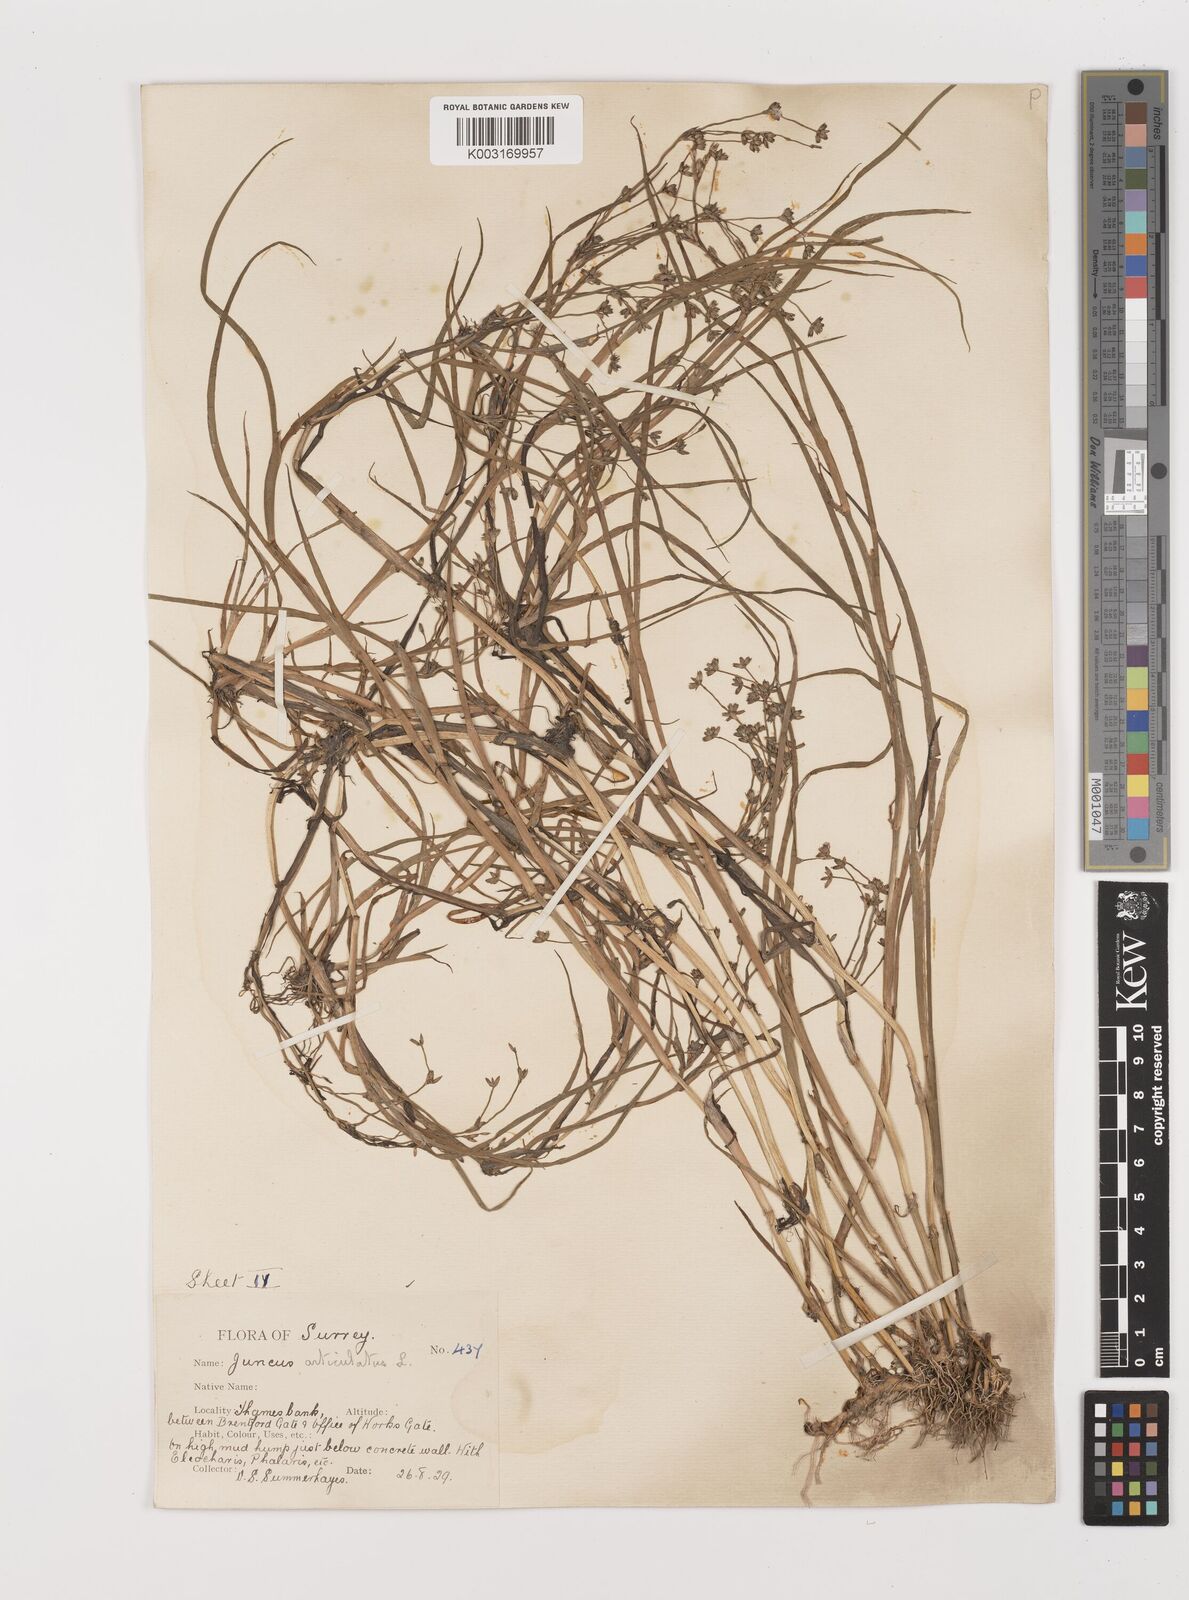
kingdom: Plantae
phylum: Tracheophyta
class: Liliopsida
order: Poales
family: Juncaceae
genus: Juncus
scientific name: Juncus articulatus
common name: Jointed rush
